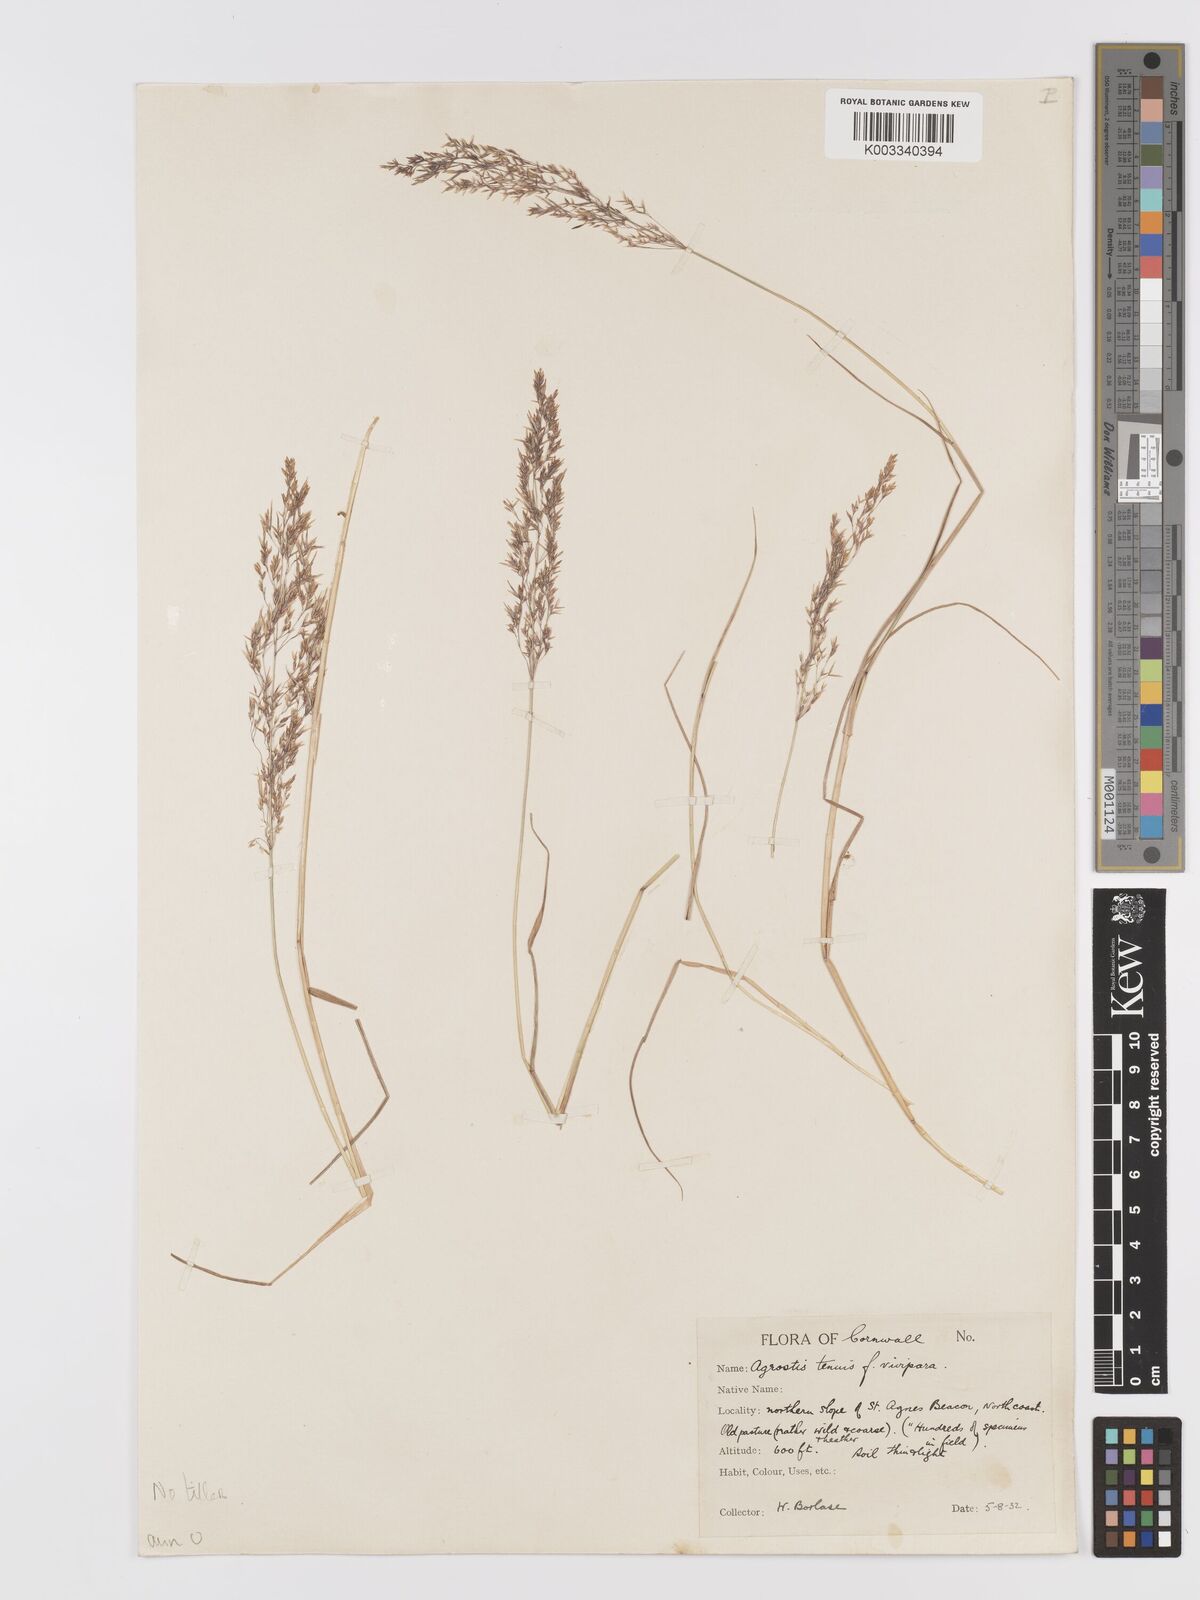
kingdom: Plantae
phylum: Tracheophyta
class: Liliopsida
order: Poales
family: Poaceae
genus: Agrostis
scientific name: Agrostis capillaris
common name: Colonial bentgrass
